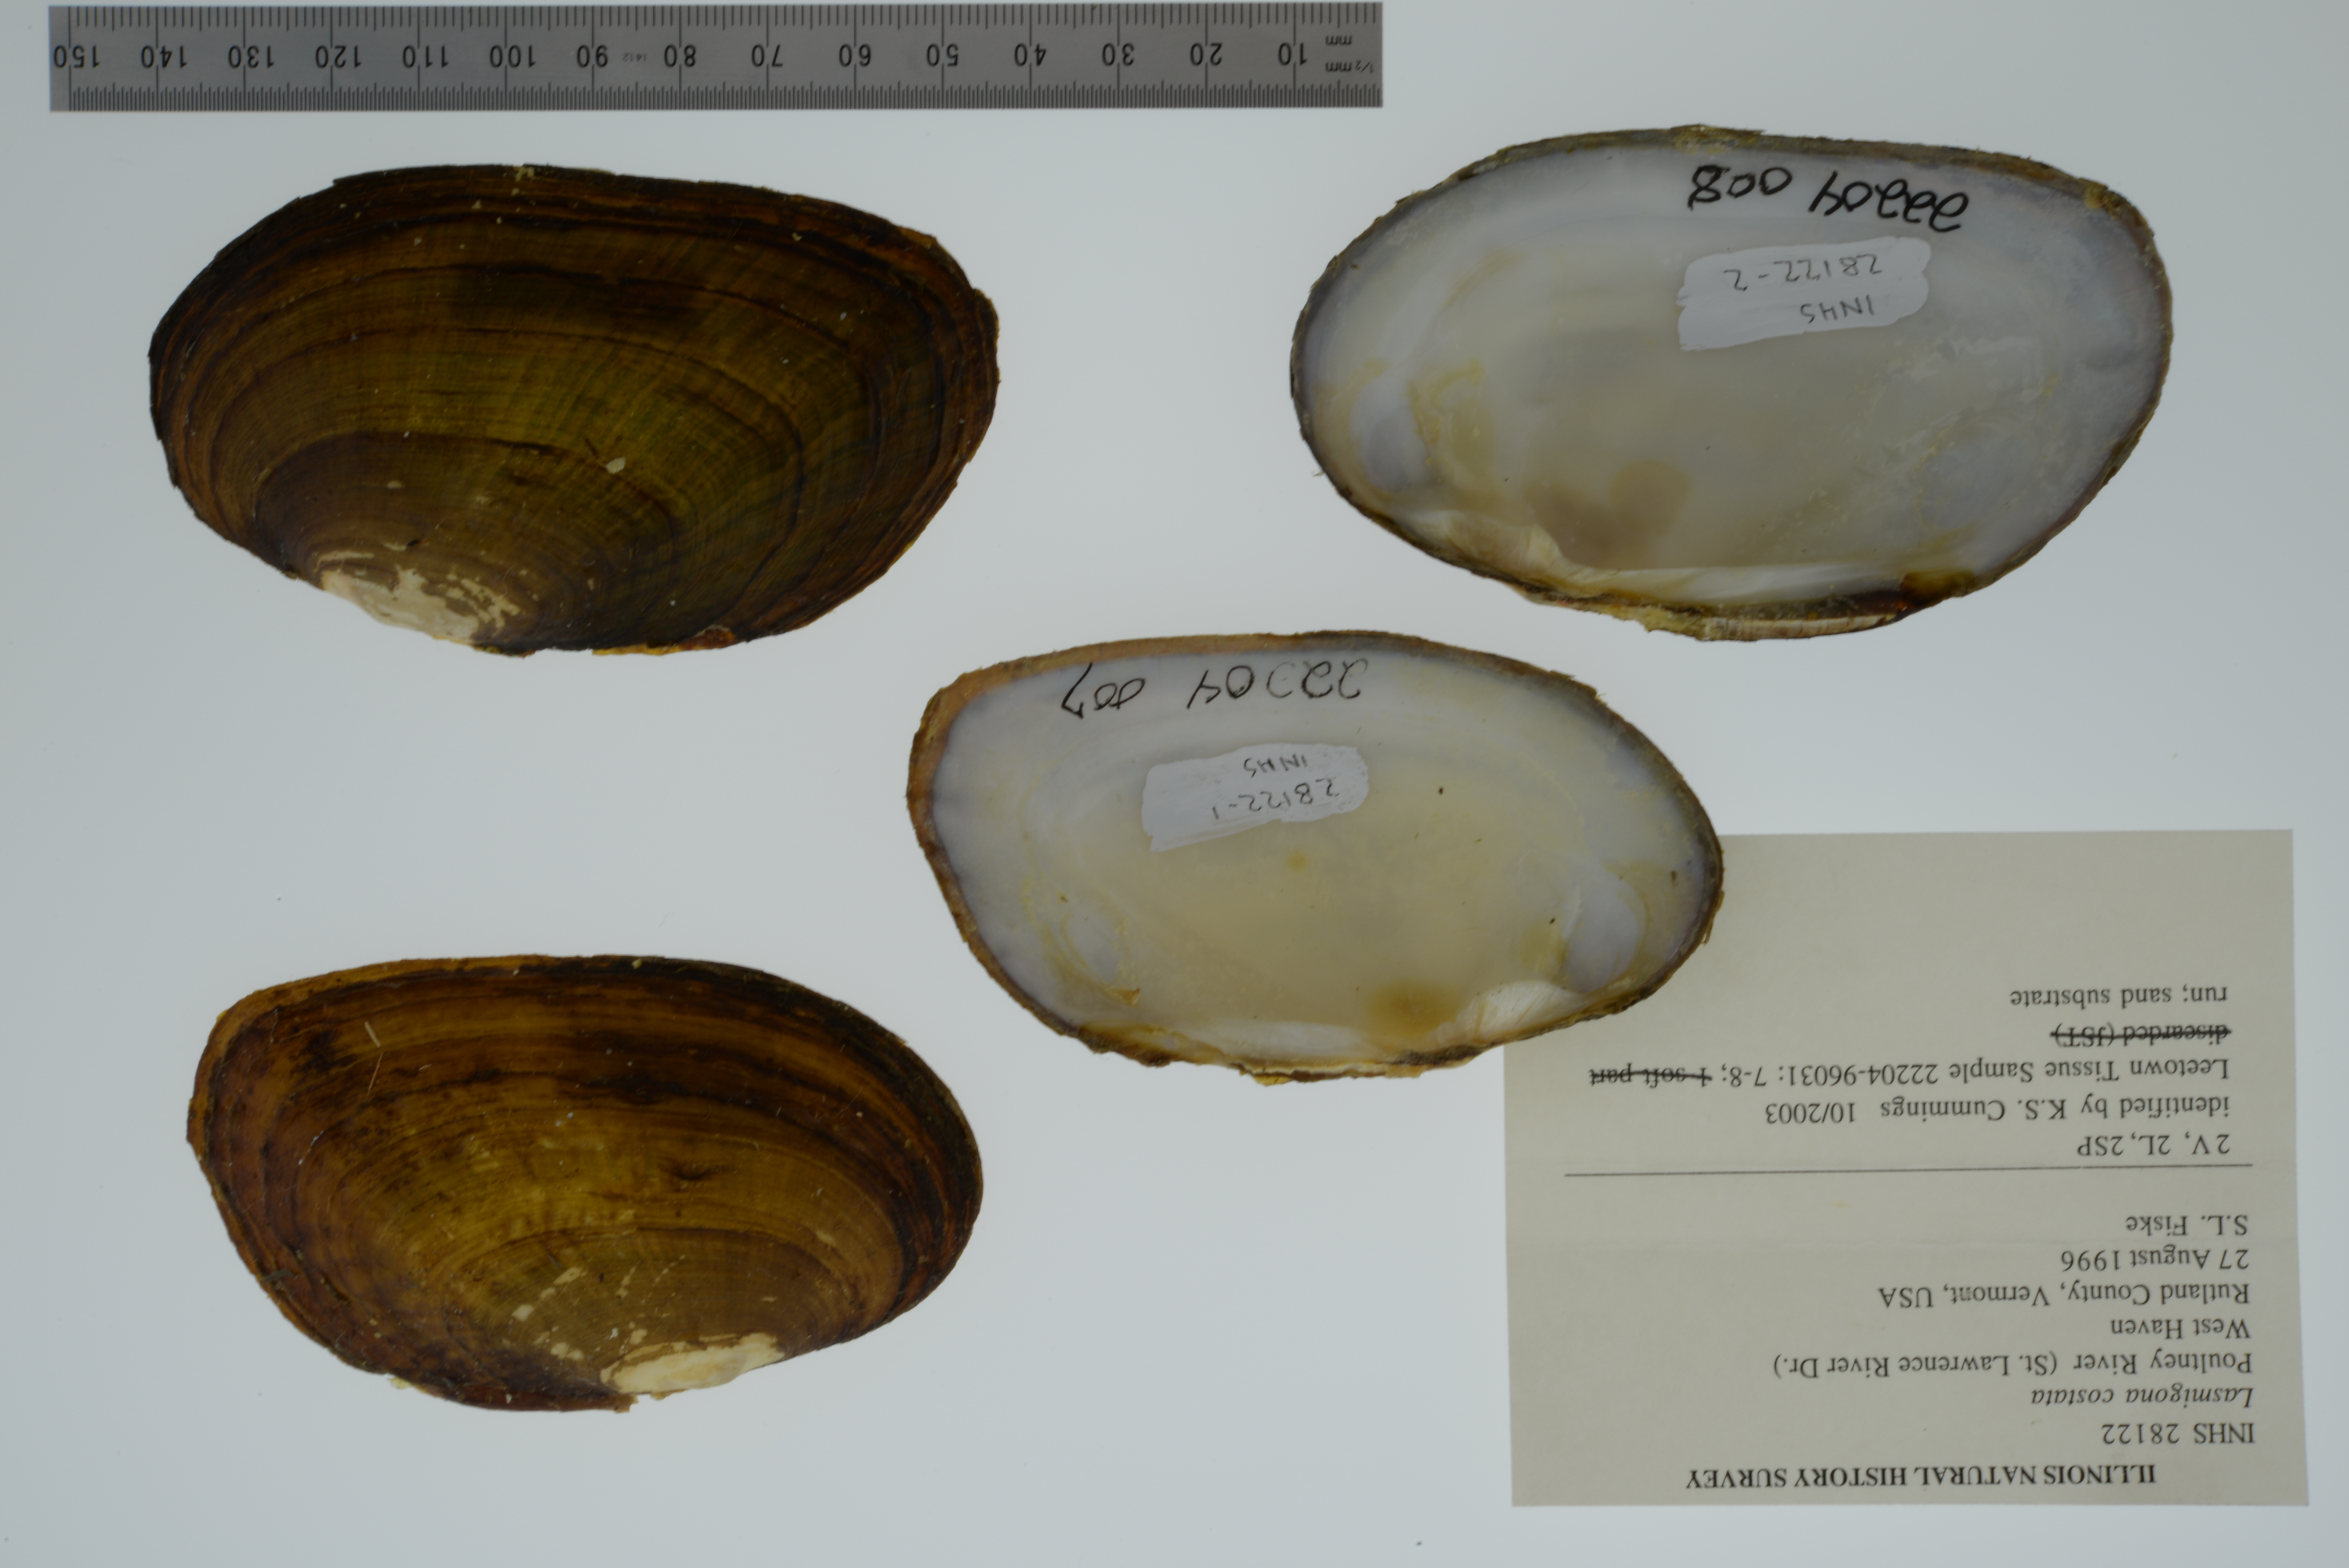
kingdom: Animalia
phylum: Mollusca
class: Bivalvia
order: Unionida
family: Unionidae
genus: Lasmigona
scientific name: Lasmigona costata
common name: Flutedshell
